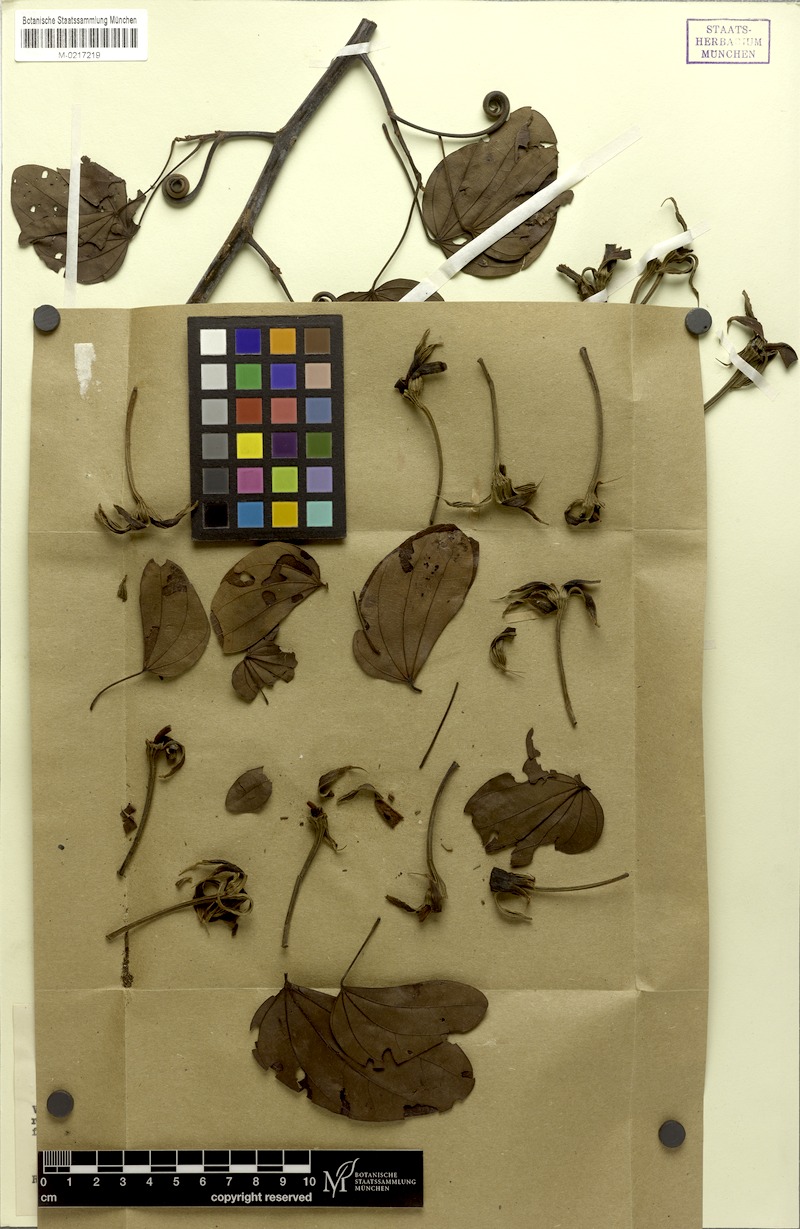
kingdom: Plantae
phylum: Tracheophyta
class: Magnoliopsida
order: Fabales
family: Fabaceae
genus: Schnella
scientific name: Schnella longiseta
